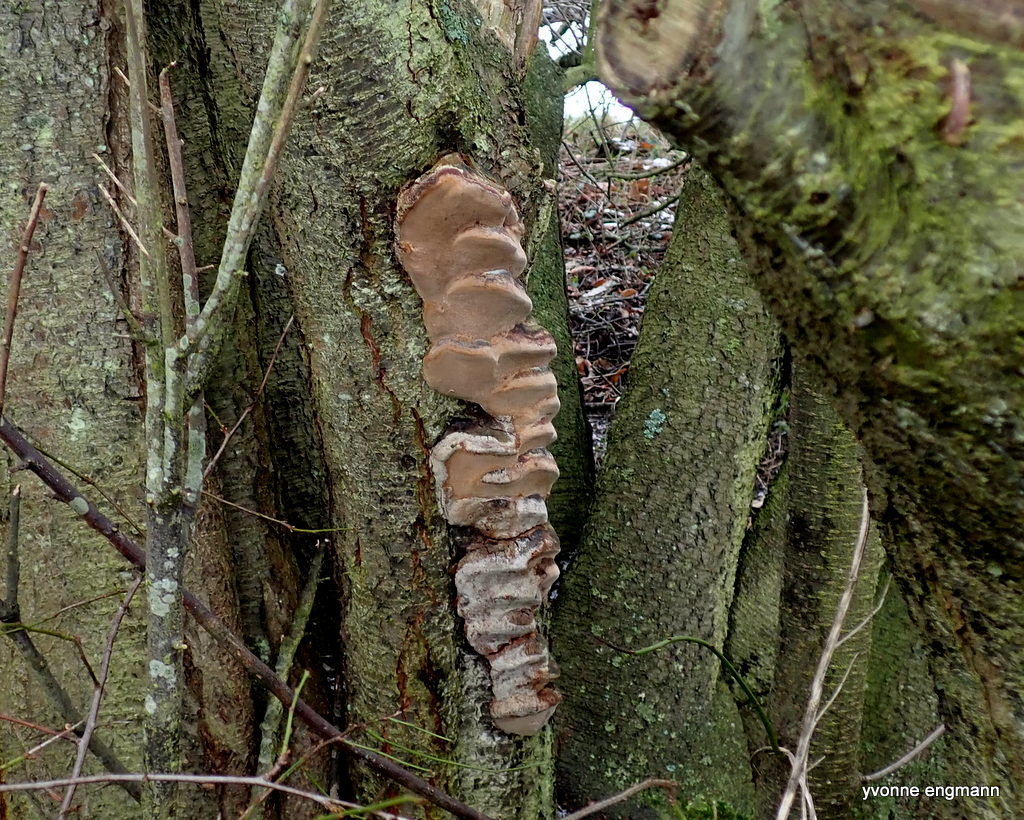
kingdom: Fungi
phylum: Basidiomycota
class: Agaricomycetes
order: Hymenochaetales
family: Hymenochaetaceae
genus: Phellinus
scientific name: Phellinus pomaceus
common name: blomme-ildporesvamp
